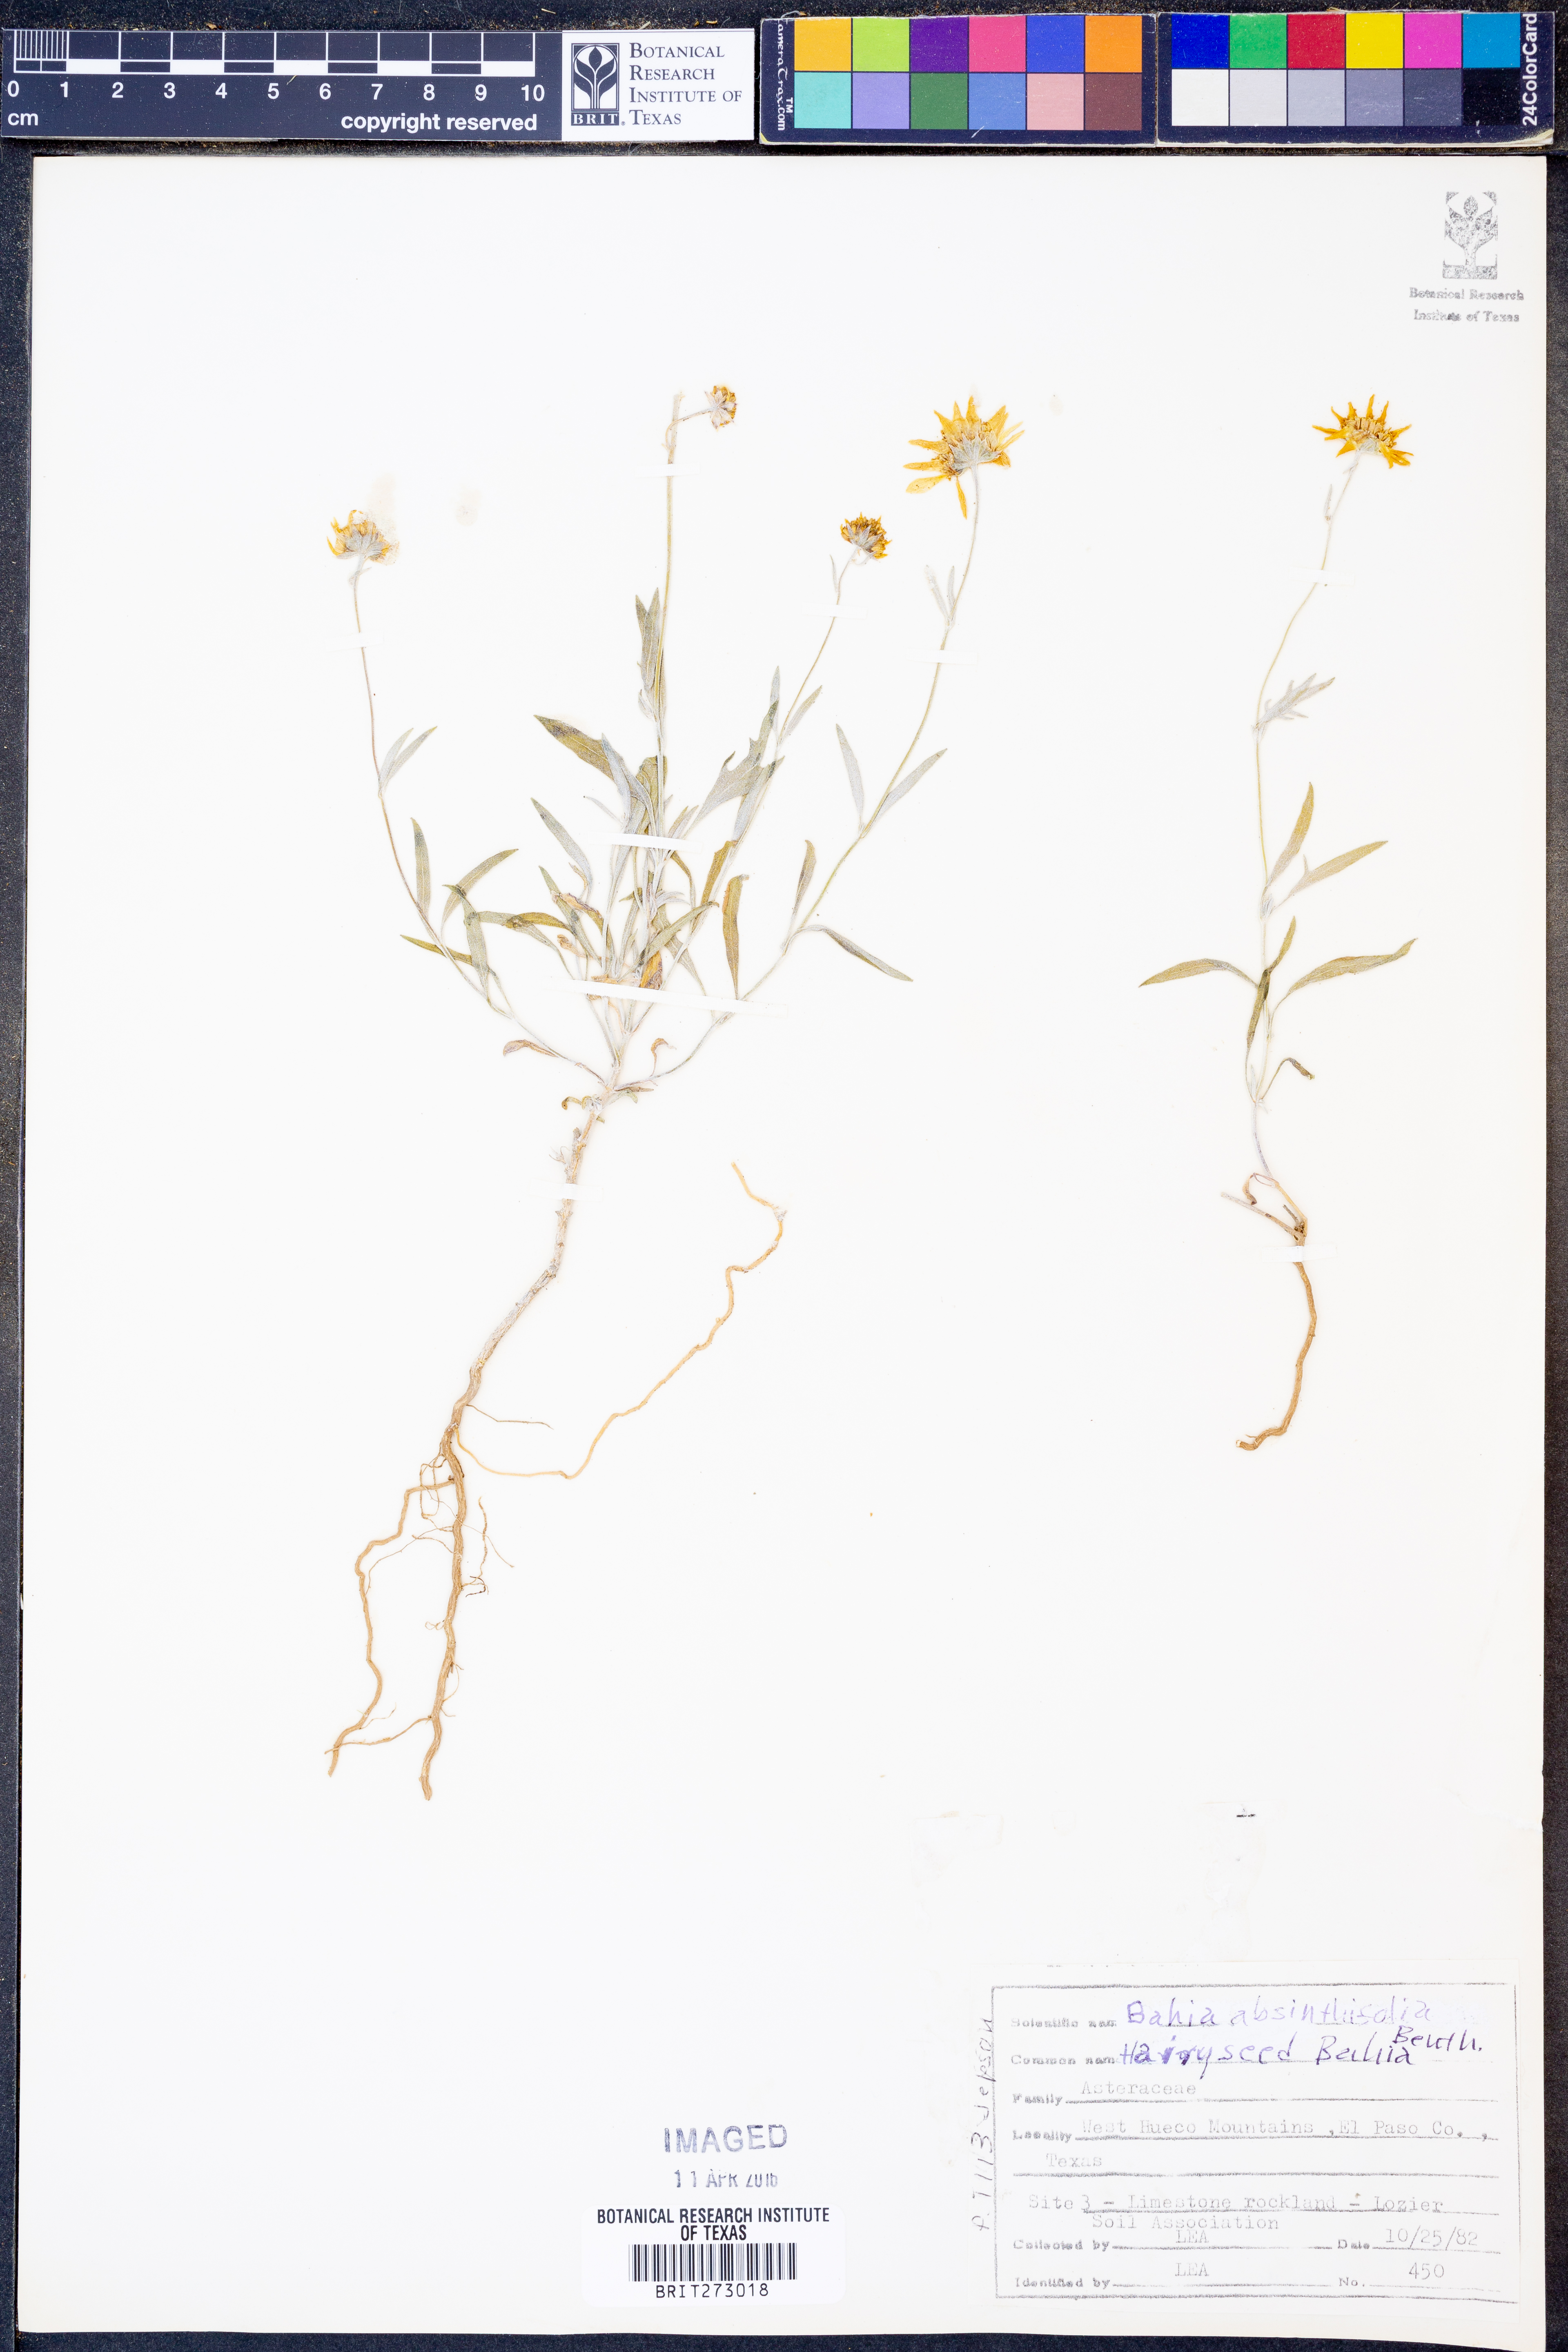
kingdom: Plantae
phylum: Tracheophyta
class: Magnoliopsida
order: Asterales
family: Asteraceae
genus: Picradeniopsis
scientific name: Picradeniopsis absinthifolia
